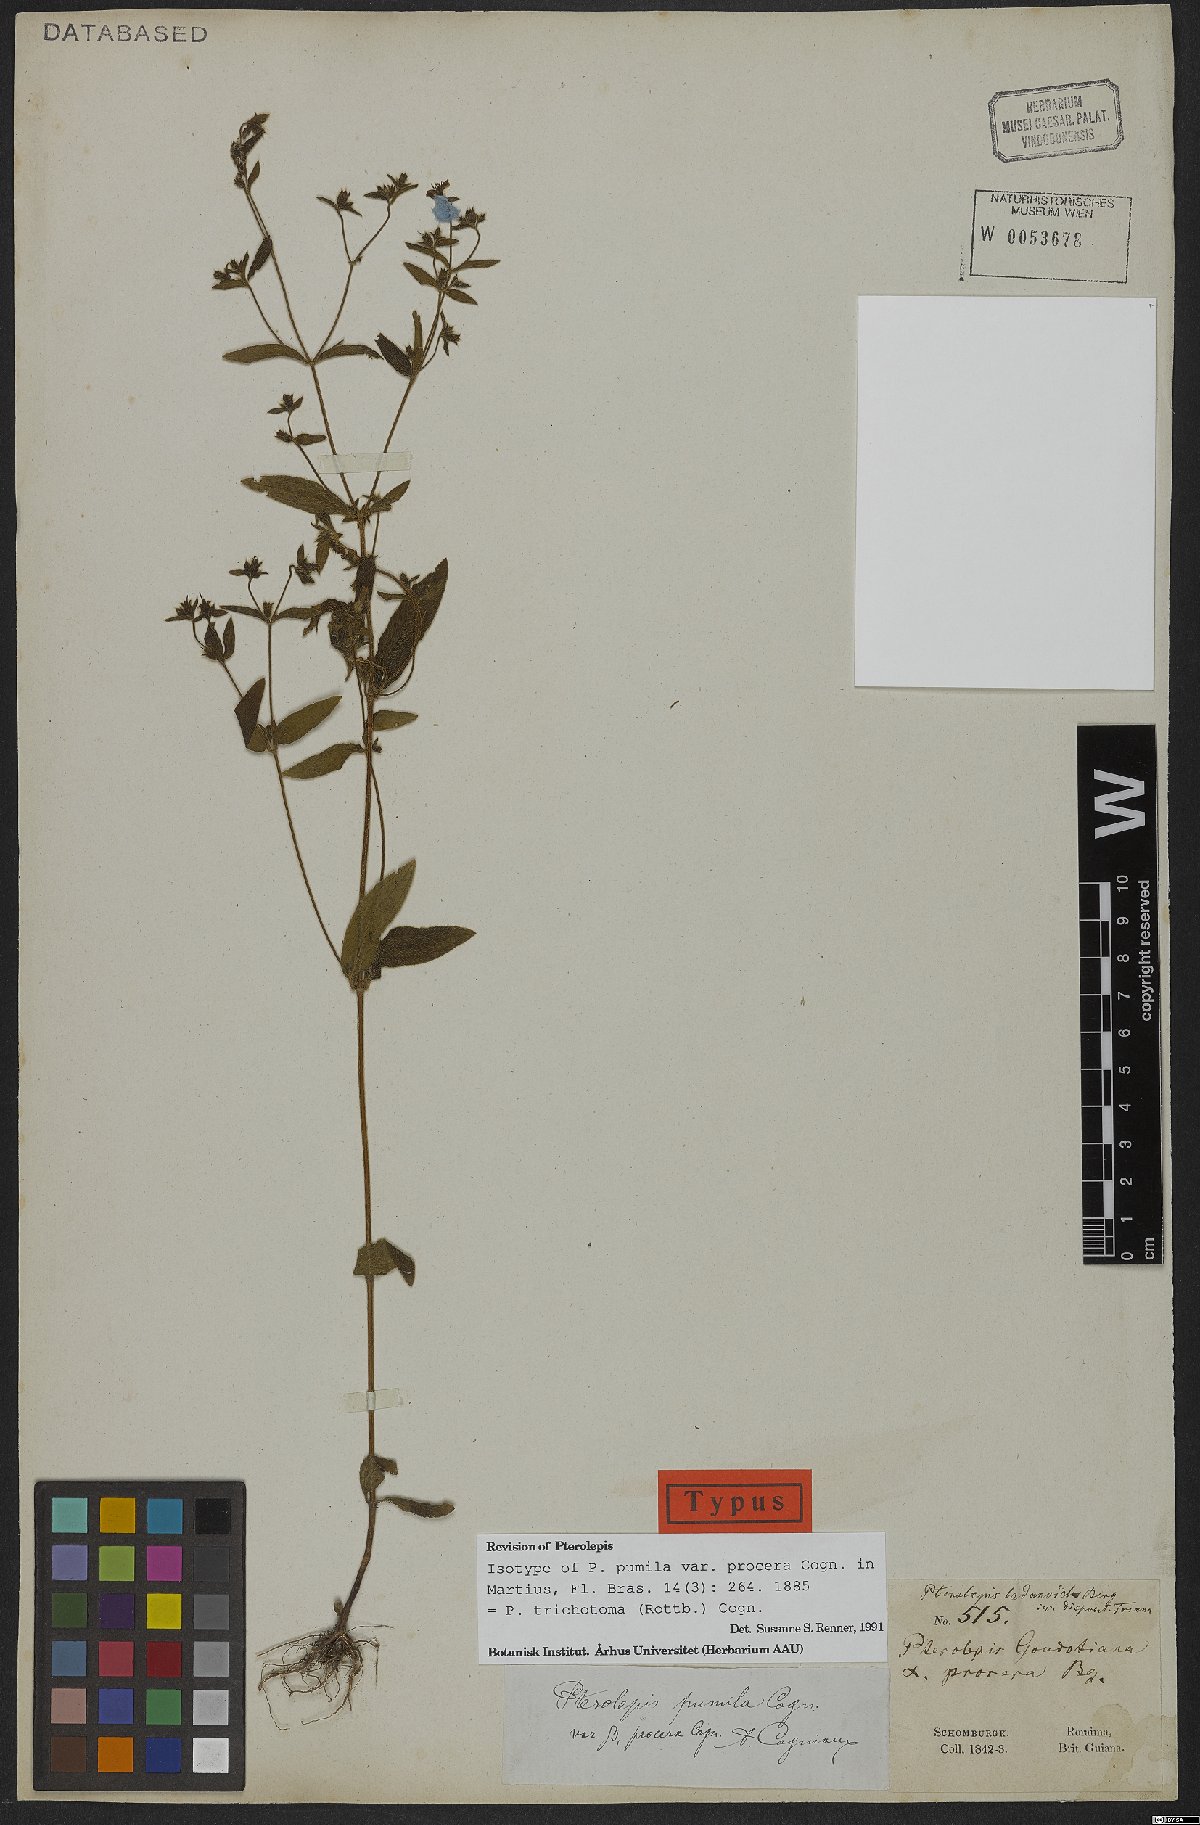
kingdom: Plantae
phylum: Tracheophyta
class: Magnoliopsida
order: Myrtales
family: Melastomataceae
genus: Pterolepis
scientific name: Pterolepis trichotoma
